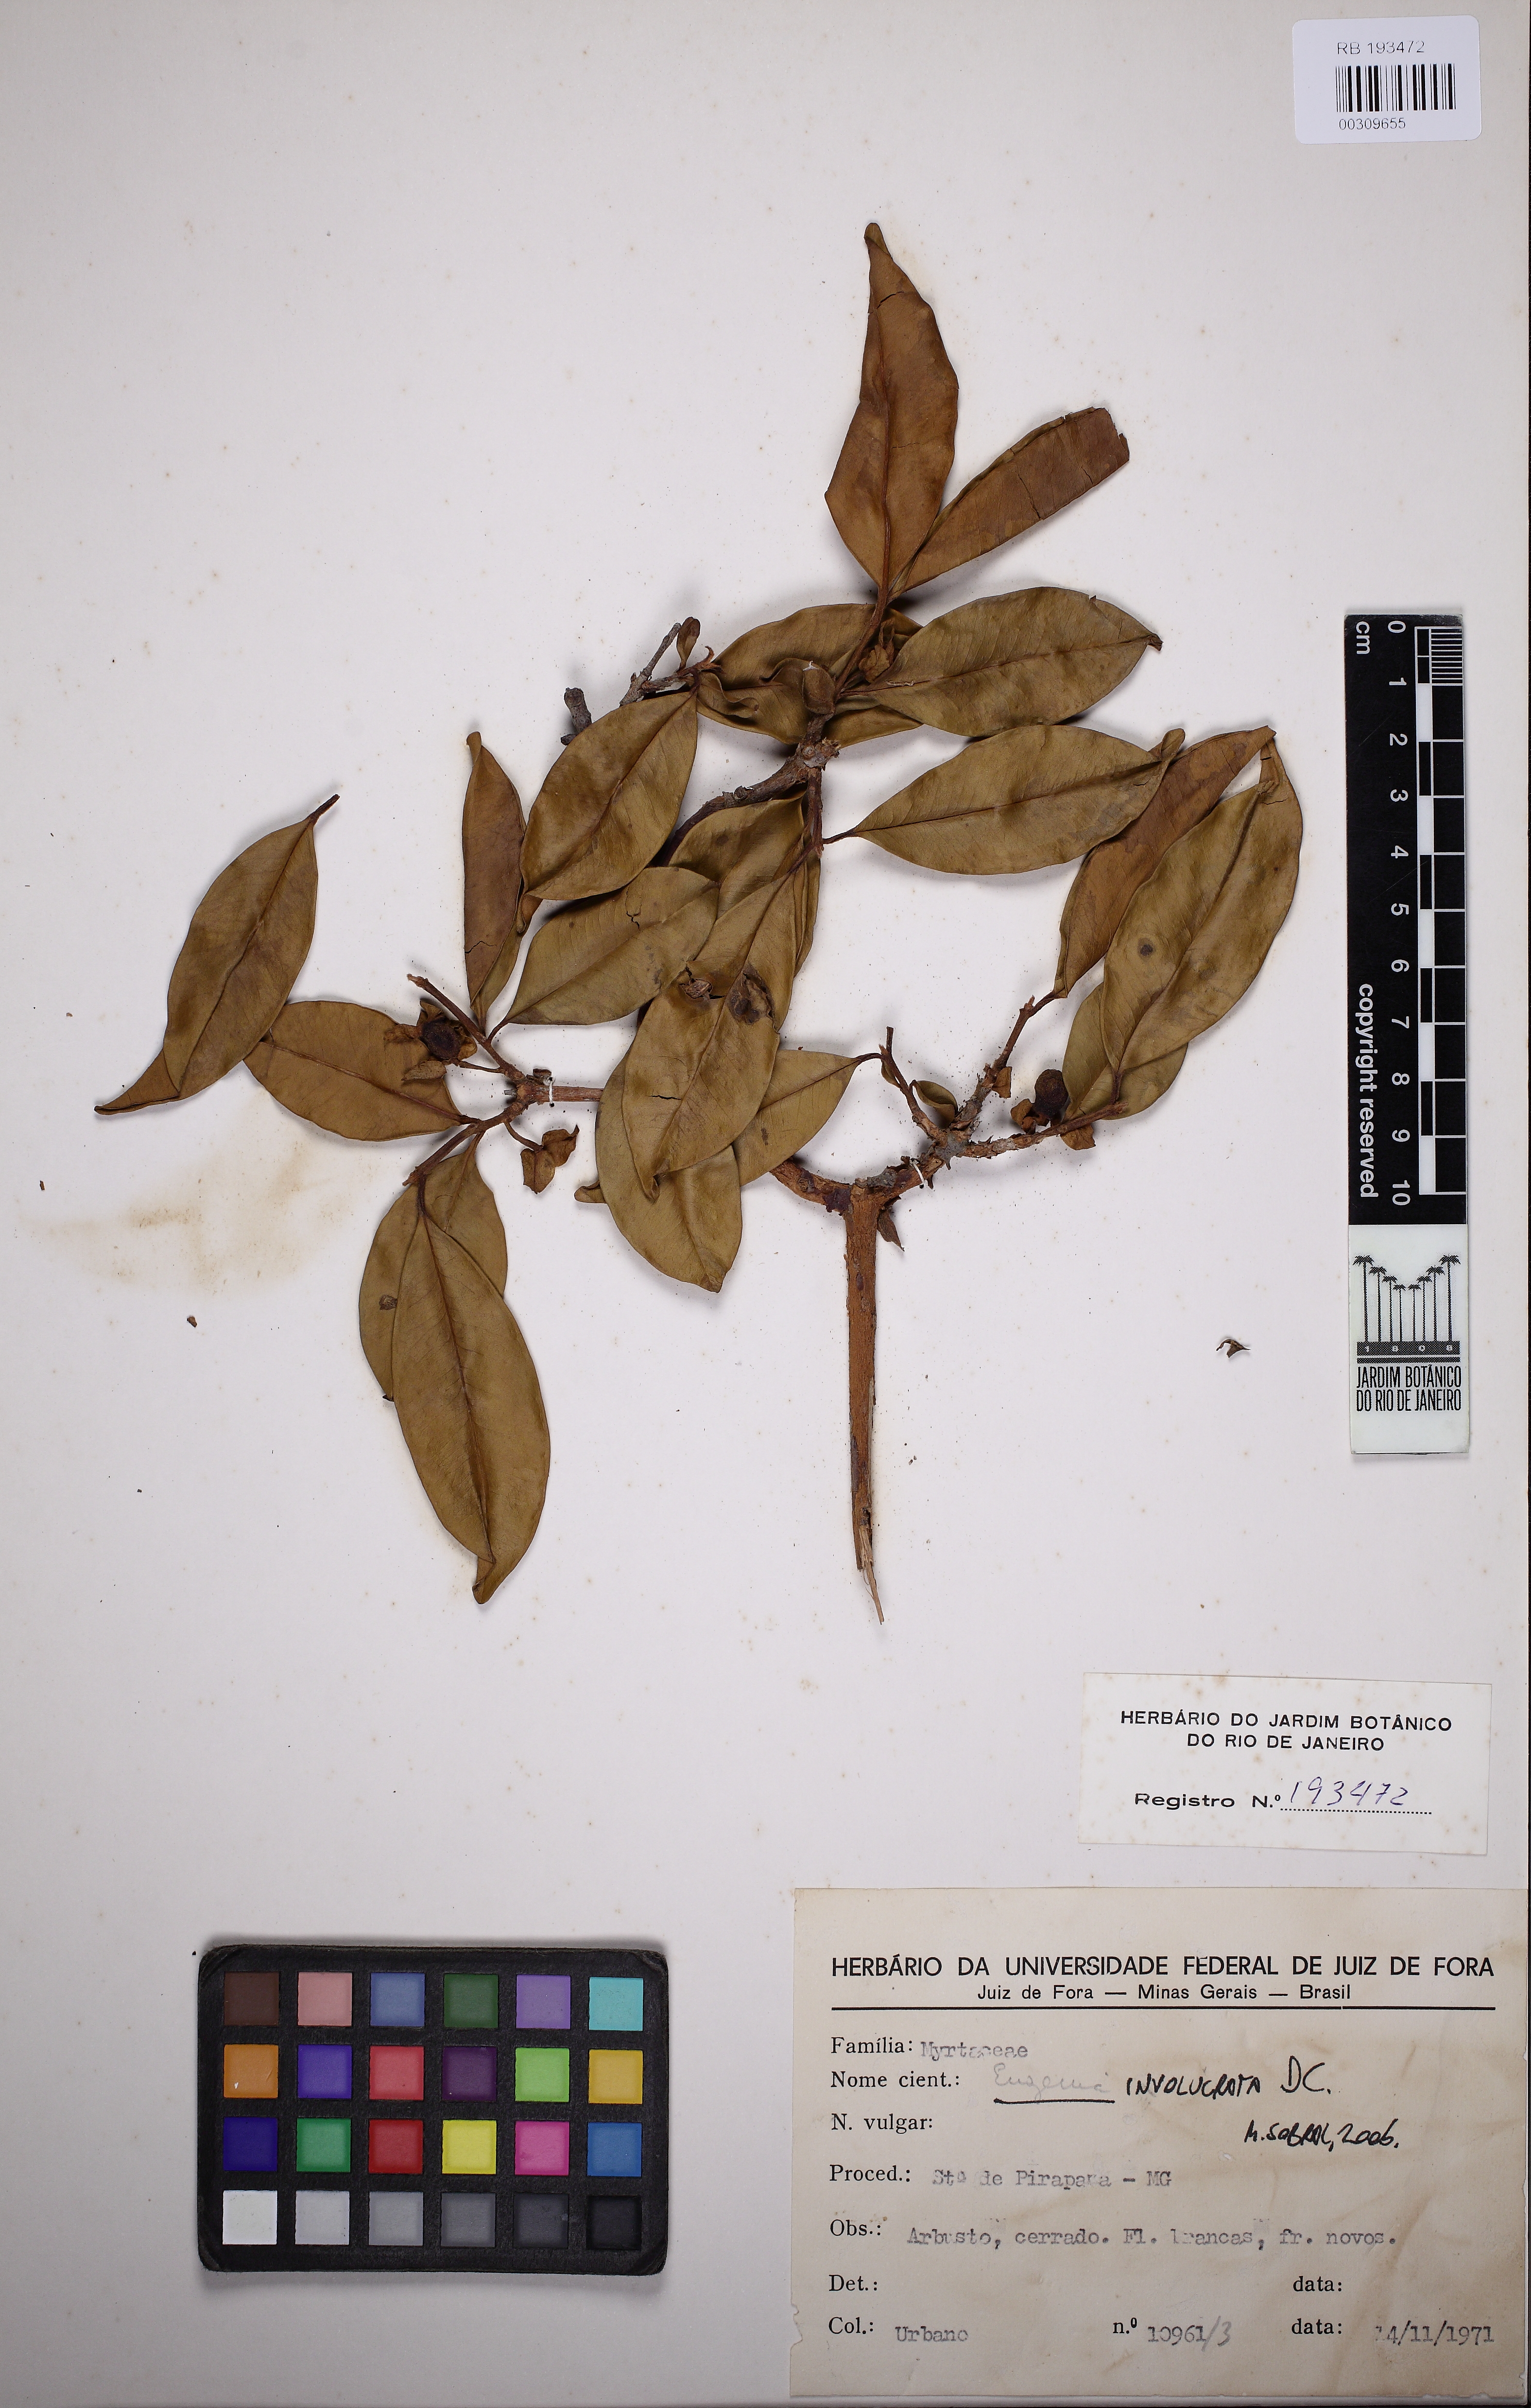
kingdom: Plantae
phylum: Tracheophyta
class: Magnoliopsida
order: Myrtales
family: Myrtaceae
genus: Eugenia
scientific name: Eugenia involucrata
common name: Cherry-of-the-rio grande
